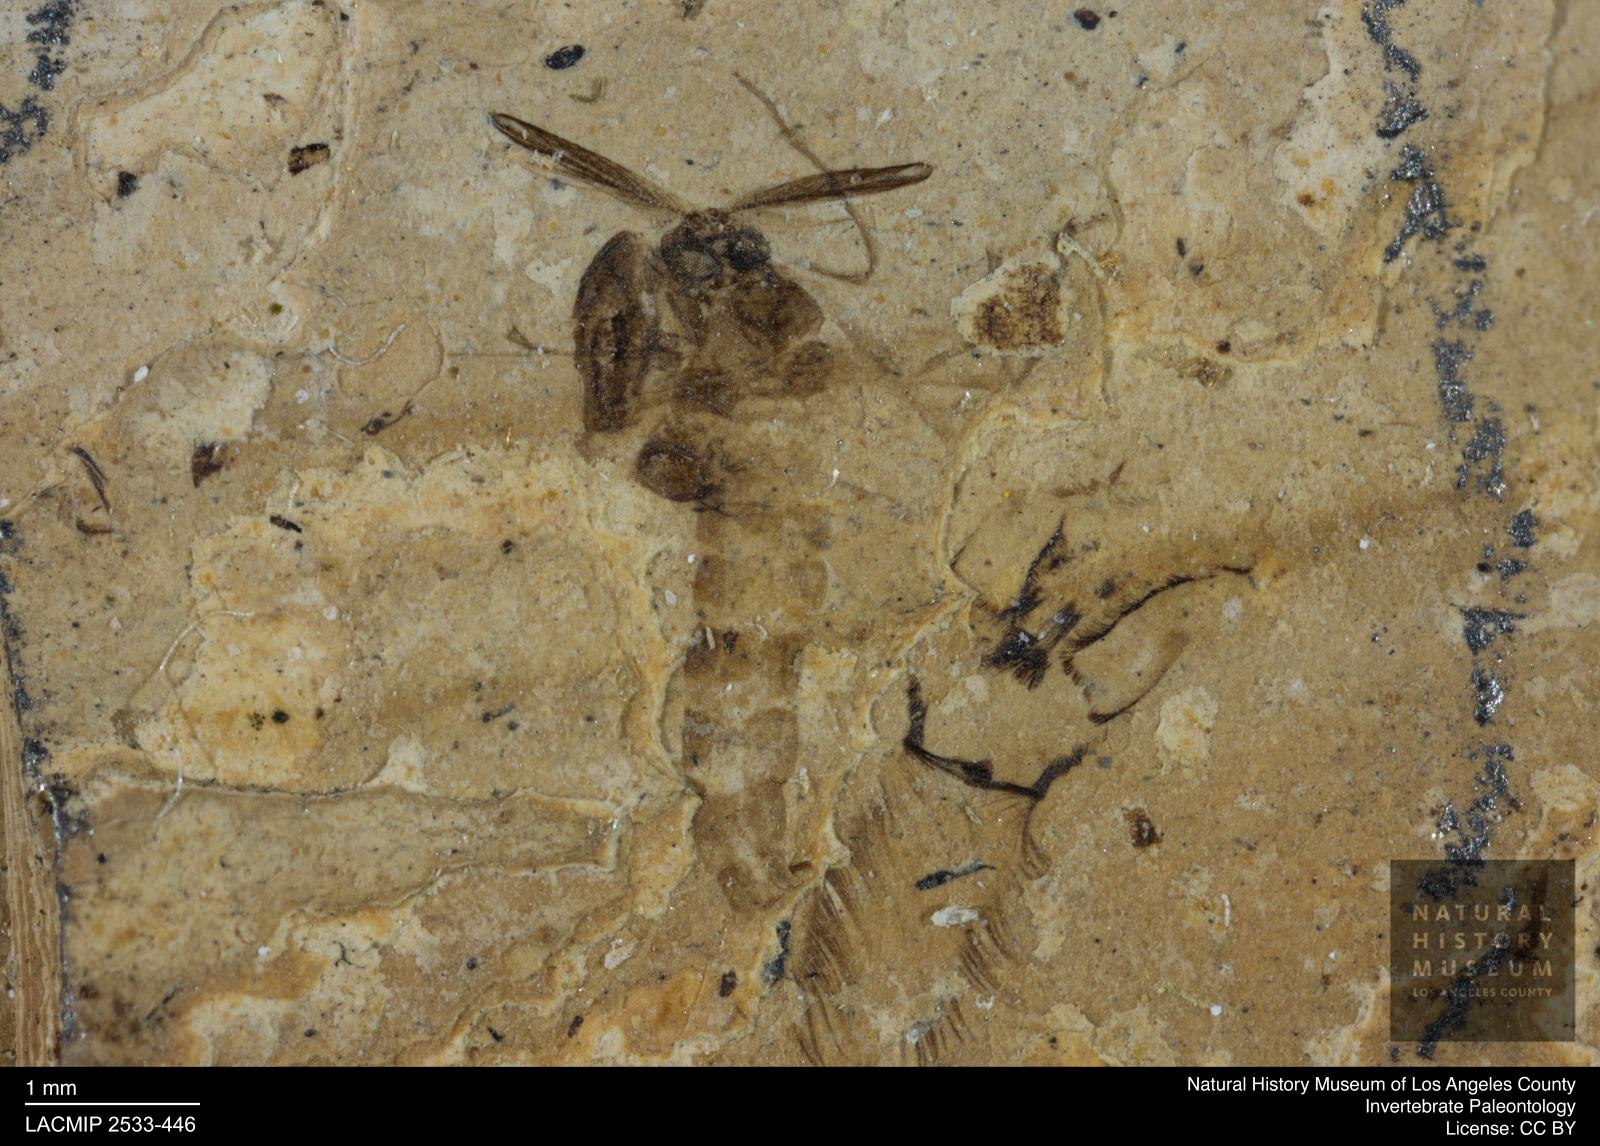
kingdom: Animalia
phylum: Arthropoda
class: Insecta
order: Diptera
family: Chironomidae
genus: Tanypus
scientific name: Tanypus thienemanni
